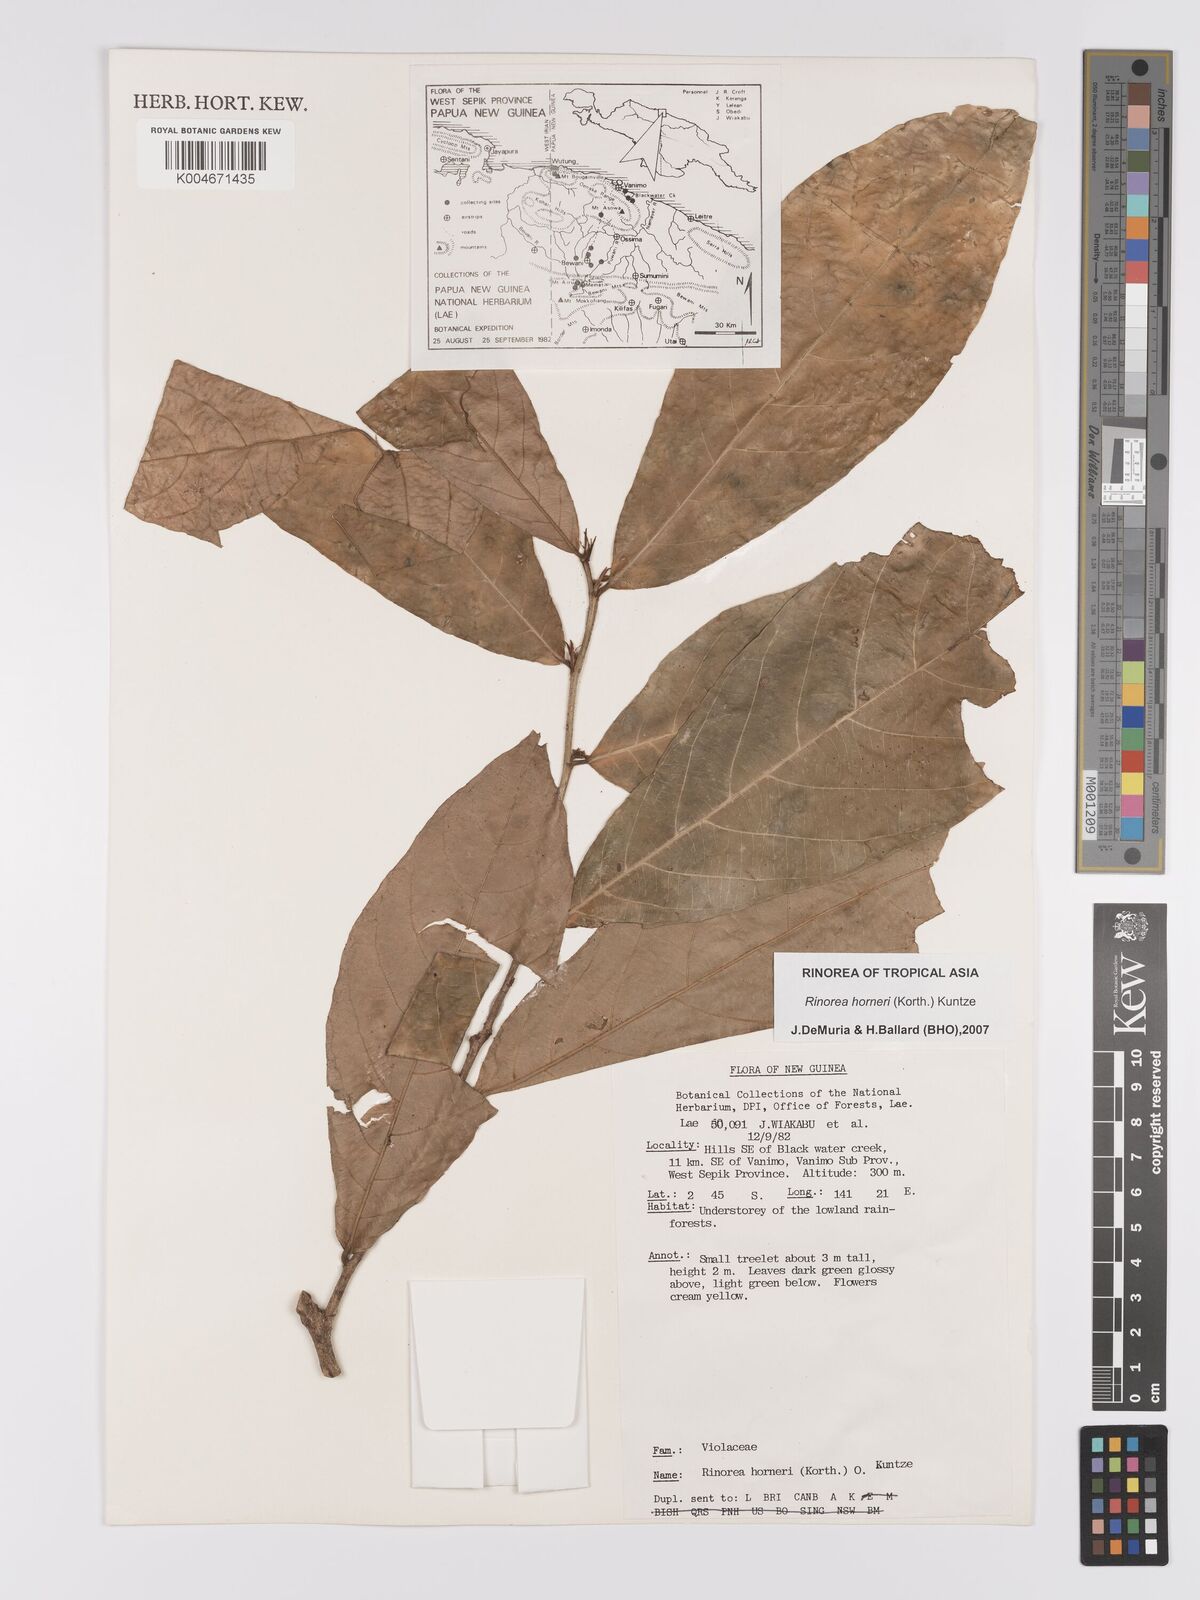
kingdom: Plantae
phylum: Tracheophyta
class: Magnoliopsida
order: Malpighiales
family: Violaceae
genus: Rinorea
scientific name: Rinorea horneri
